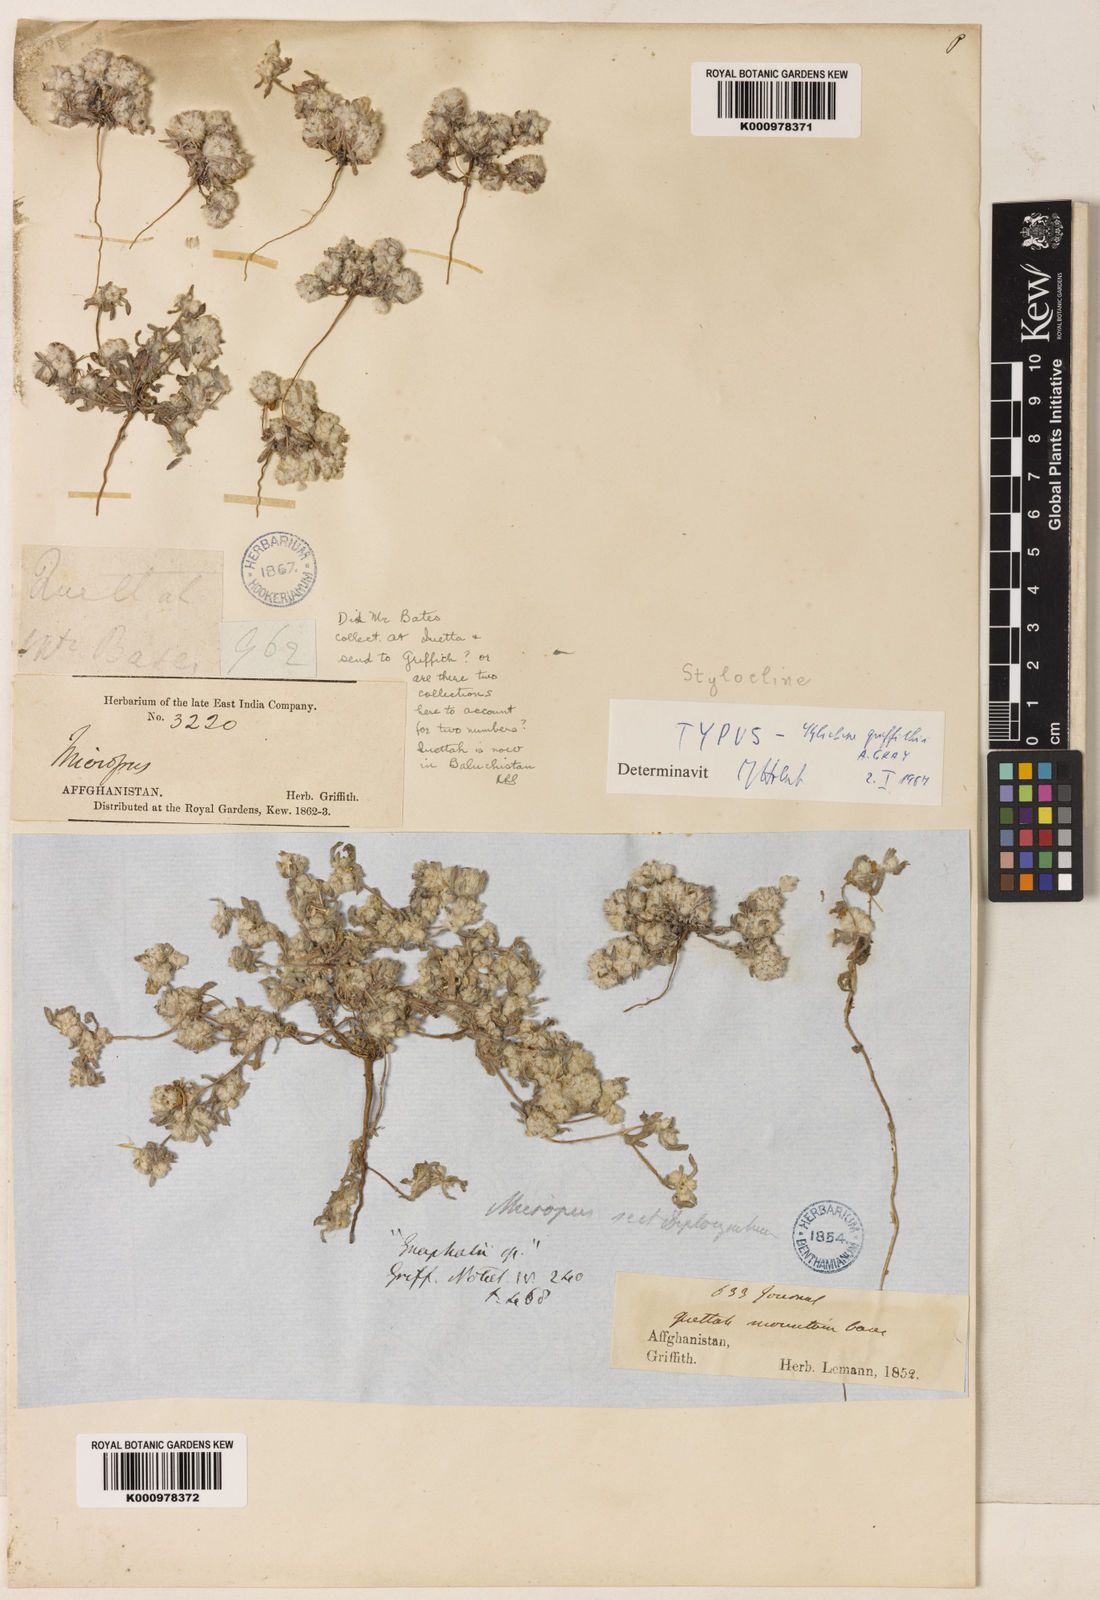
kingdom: Plantae
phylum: Tracheophyta
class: Magnoliopsida
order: Asterales
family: Asteraceae
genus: Filago
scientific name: Filago griffithii
